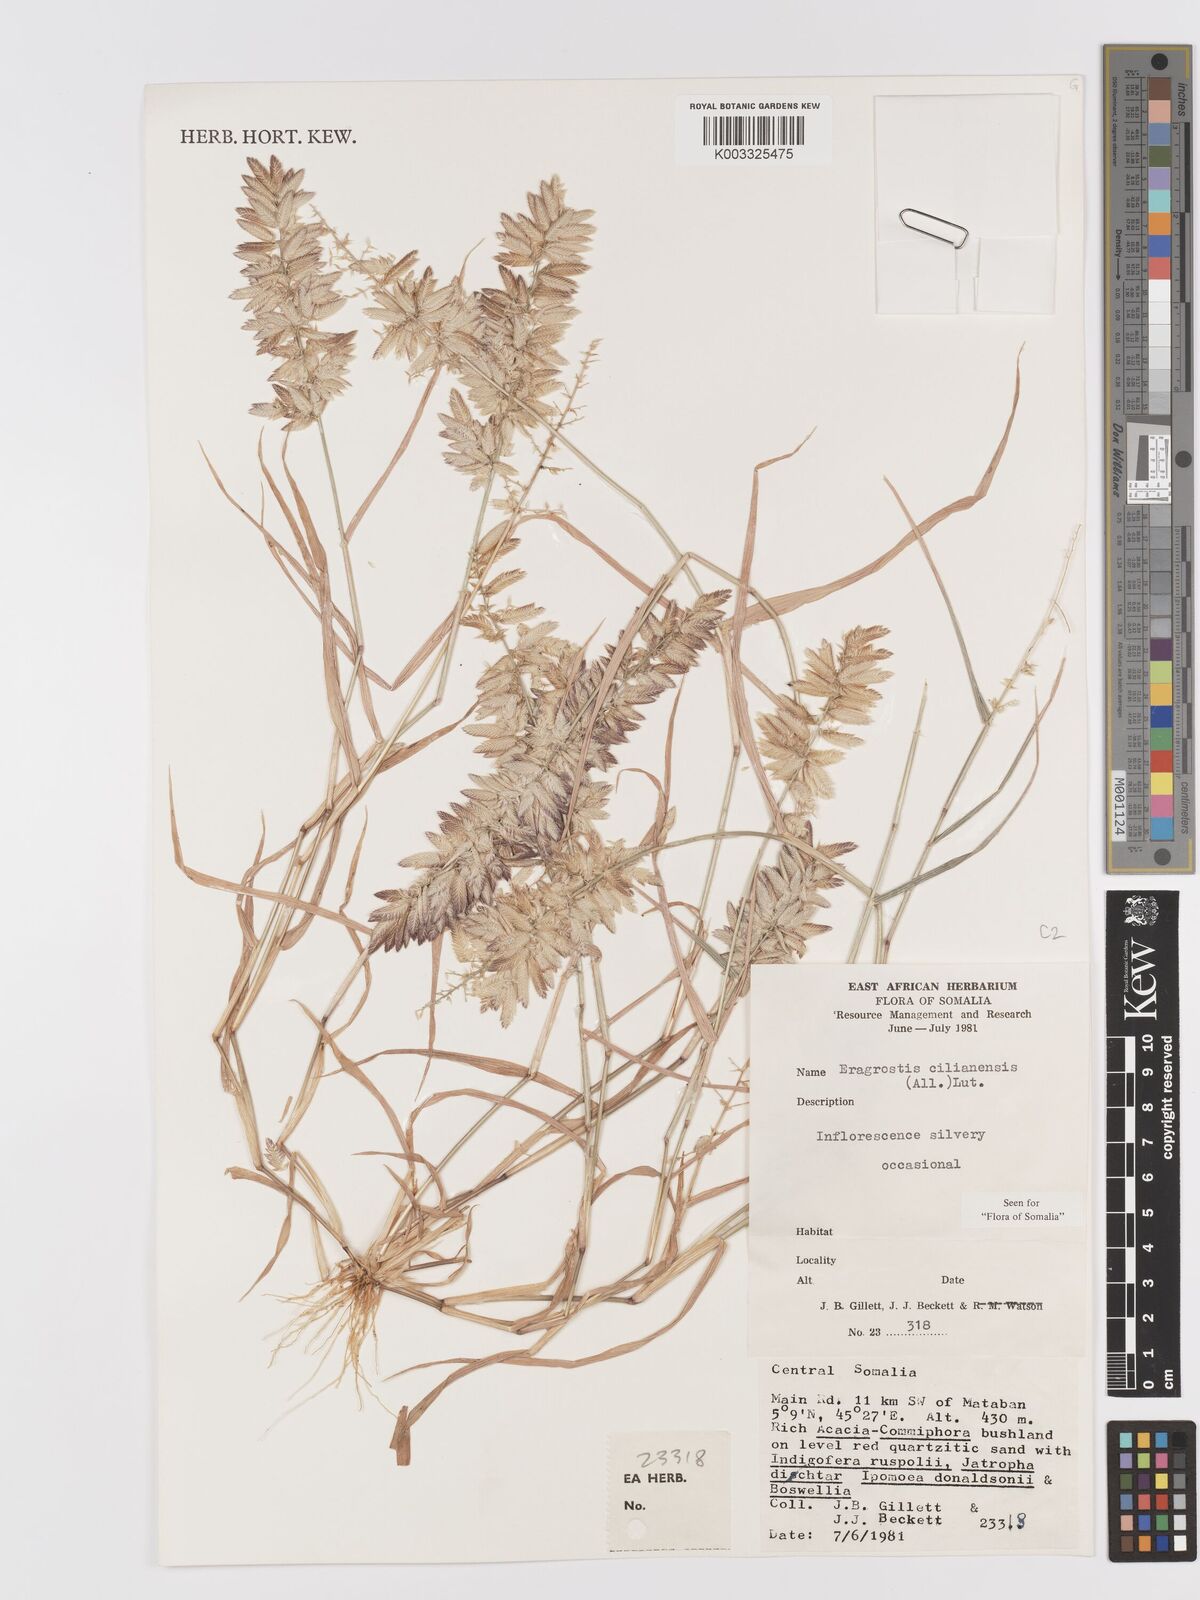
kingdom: Plantae
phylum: Tracheophyta
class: Liliopsida
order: Poales
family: Poaceae
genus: Eragrostis
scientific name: Eragrostis cilianensis
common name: Stinkgrass
